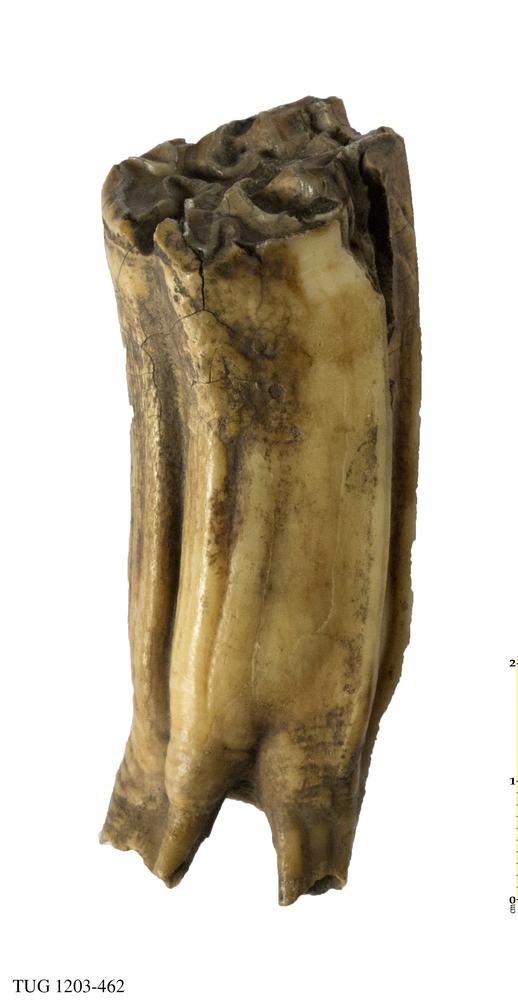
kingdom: Animalia
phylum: Chordata
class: Mammalia
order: Perissodactyla
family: Equidae
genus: Equus
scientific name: Equus
